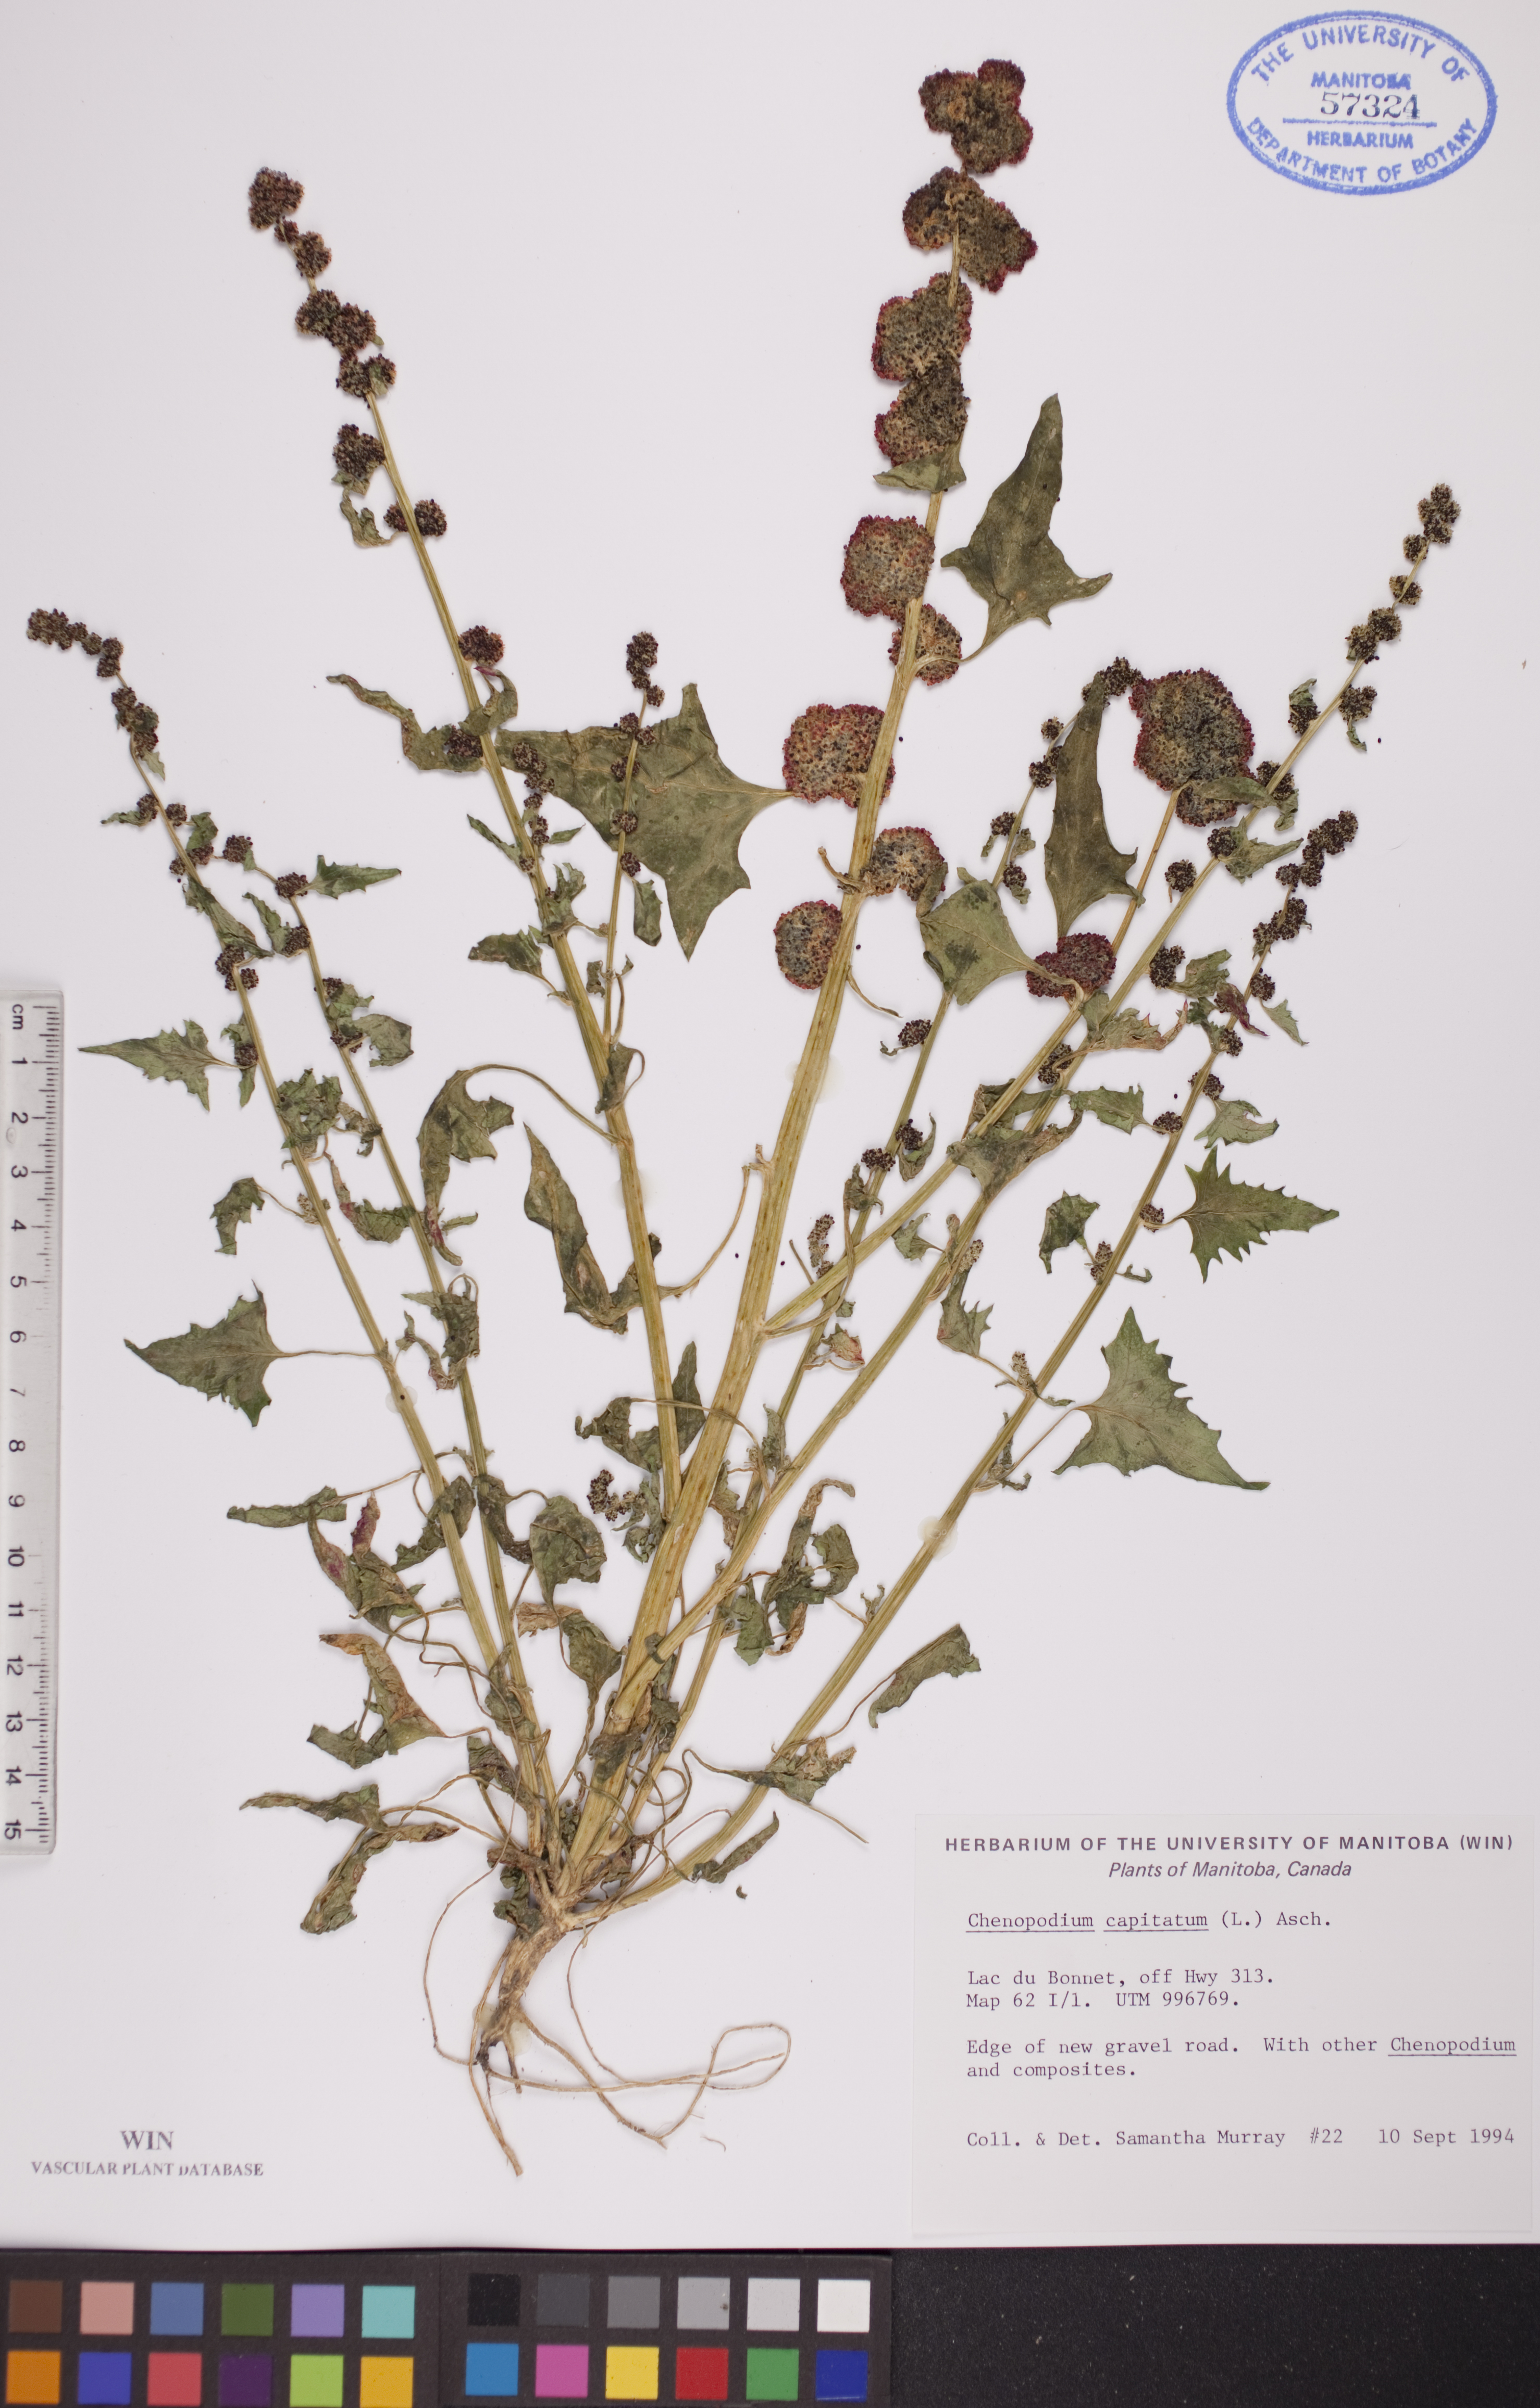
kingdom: Plantae
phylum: Tracheophyta
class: Magnoliopsida
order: Caryophyllales
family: Amaranthaceae
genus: Blitum
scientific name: Blitum capitatum
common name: Strawberry-blight
